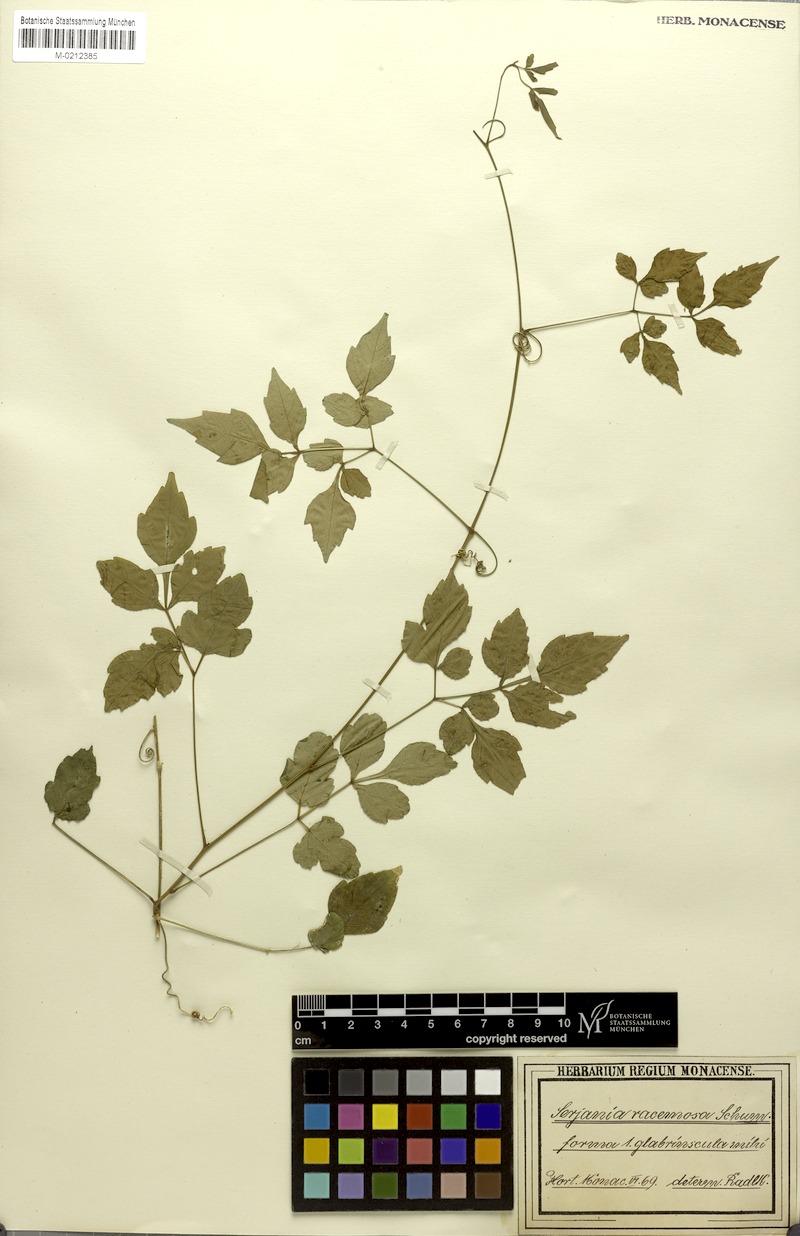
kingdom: Plantae
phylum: Tracheophyta
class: Magnoliopsida
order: Sapindales
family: Sapindaceae
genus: Serjania
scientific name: Serjania racemosa
